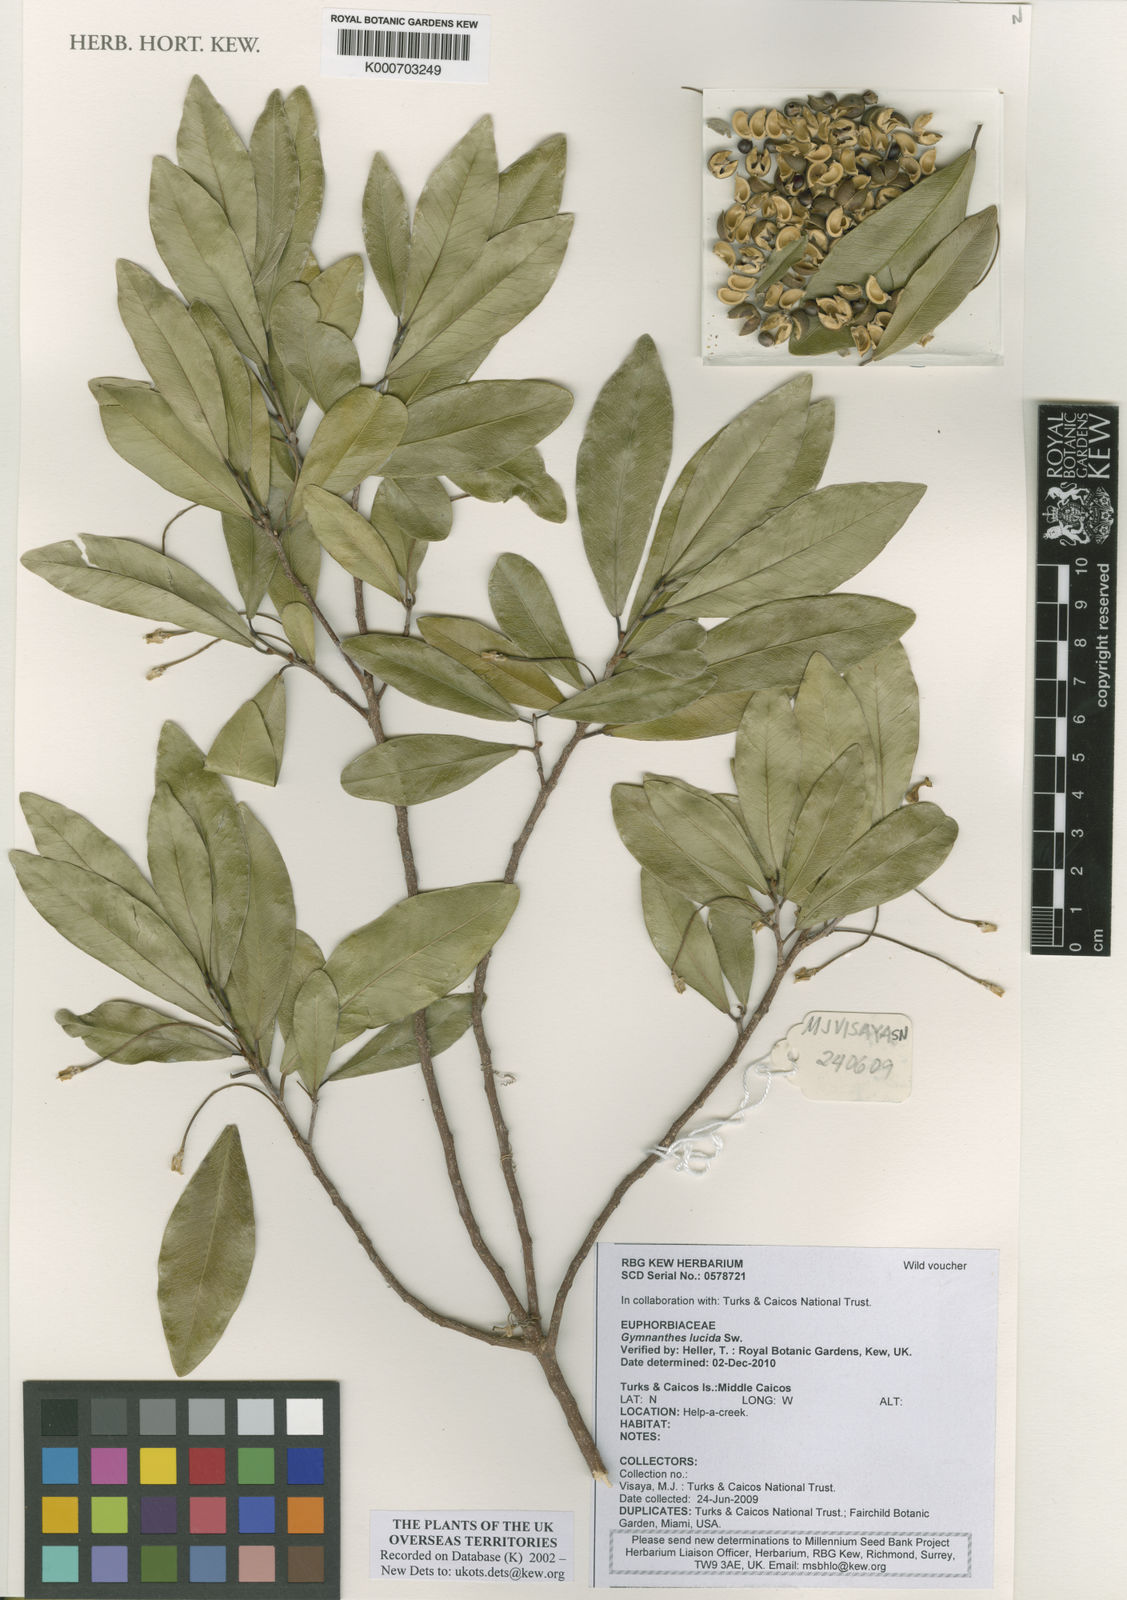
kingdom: Plantae
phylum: Tracheophyta
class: Magnoliopsida
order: Malpighiales
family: Euphorbiaceae
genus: Gymnanthes
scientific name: Gymnanthes lucida
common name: Oysterwood
